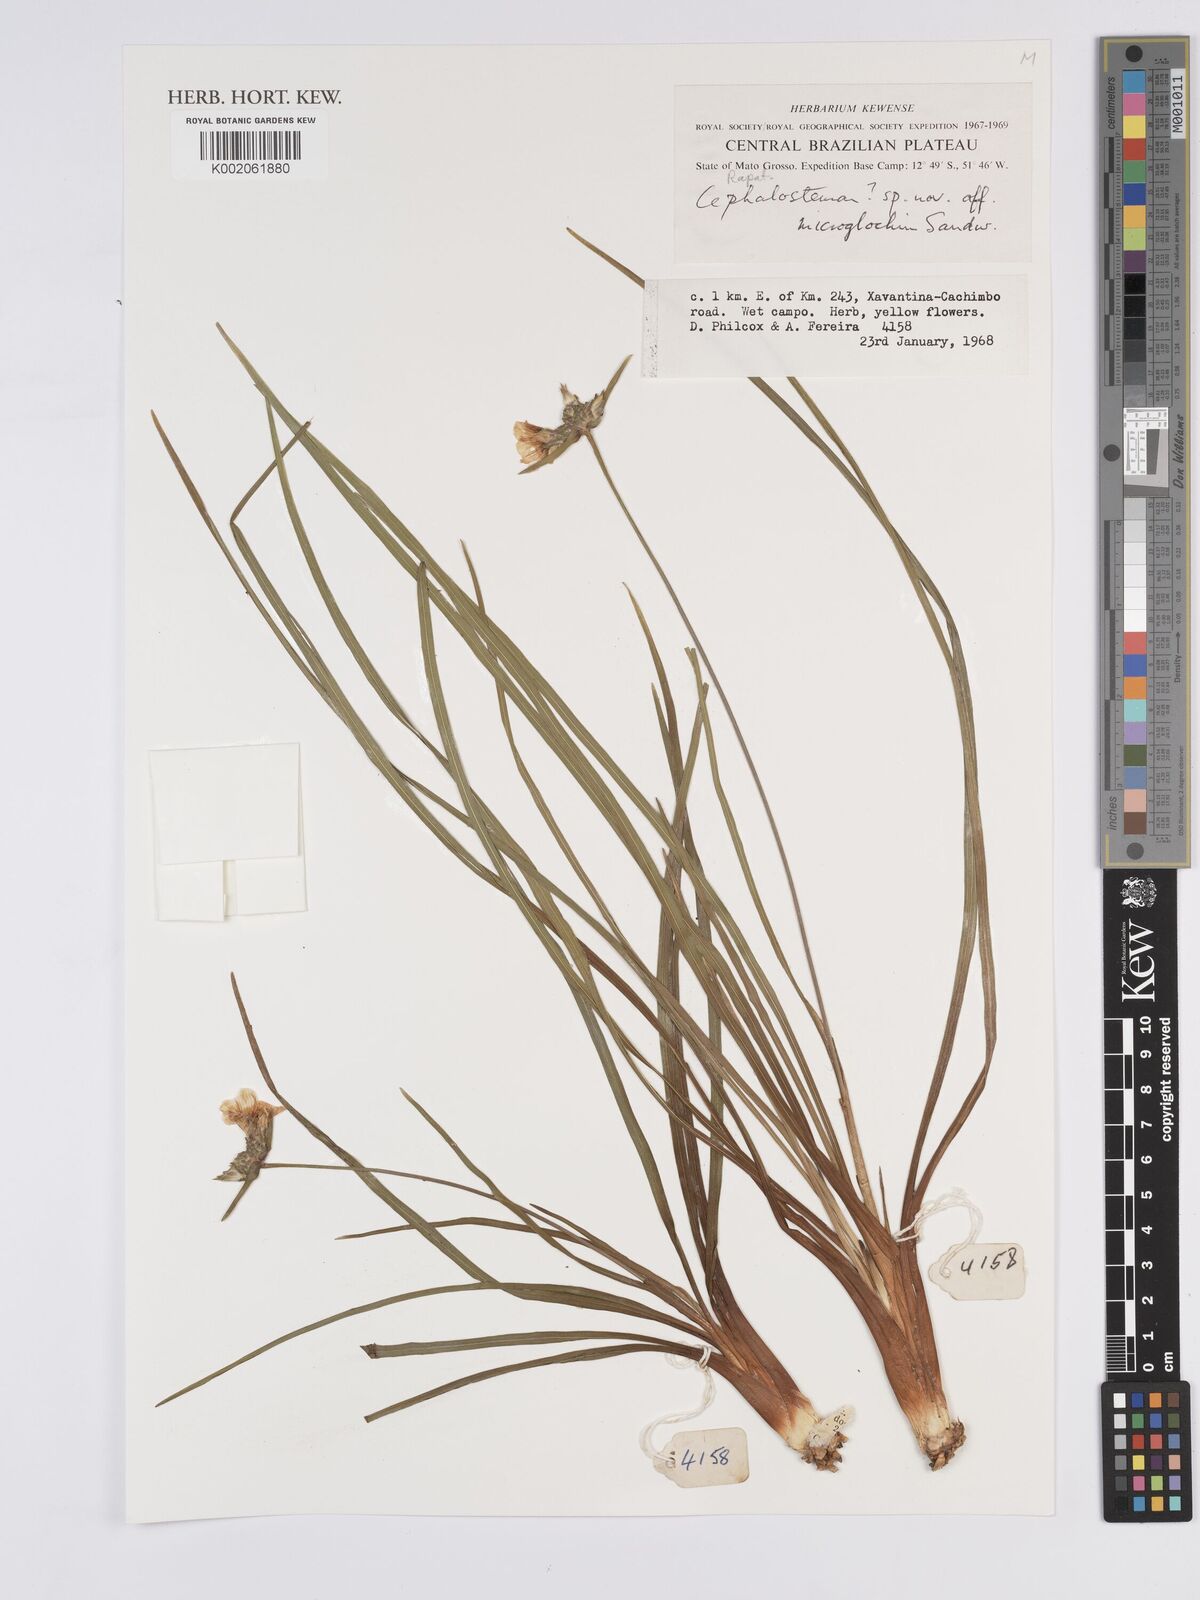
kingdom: Plantae
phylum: Tracheophyta
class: Liliopsida
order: Poales
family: Rapateaceae
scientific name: Rapateaceae
